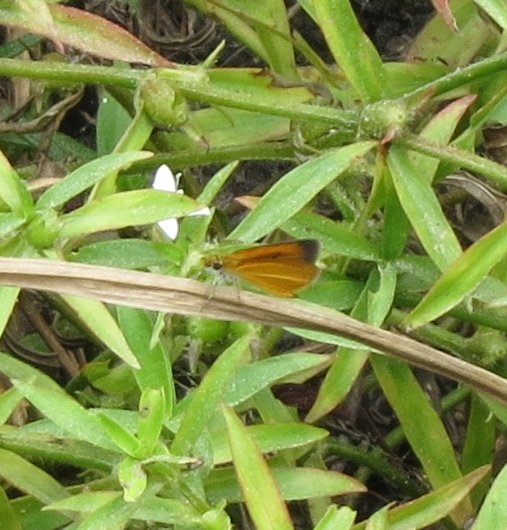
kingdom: Animalia
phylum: Arthropoda
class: Insecta
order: Lepidoptera
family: Hesperiidae
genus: Ancyloxypha
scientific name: Ancyloxypha numitor
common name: Least Skipper
